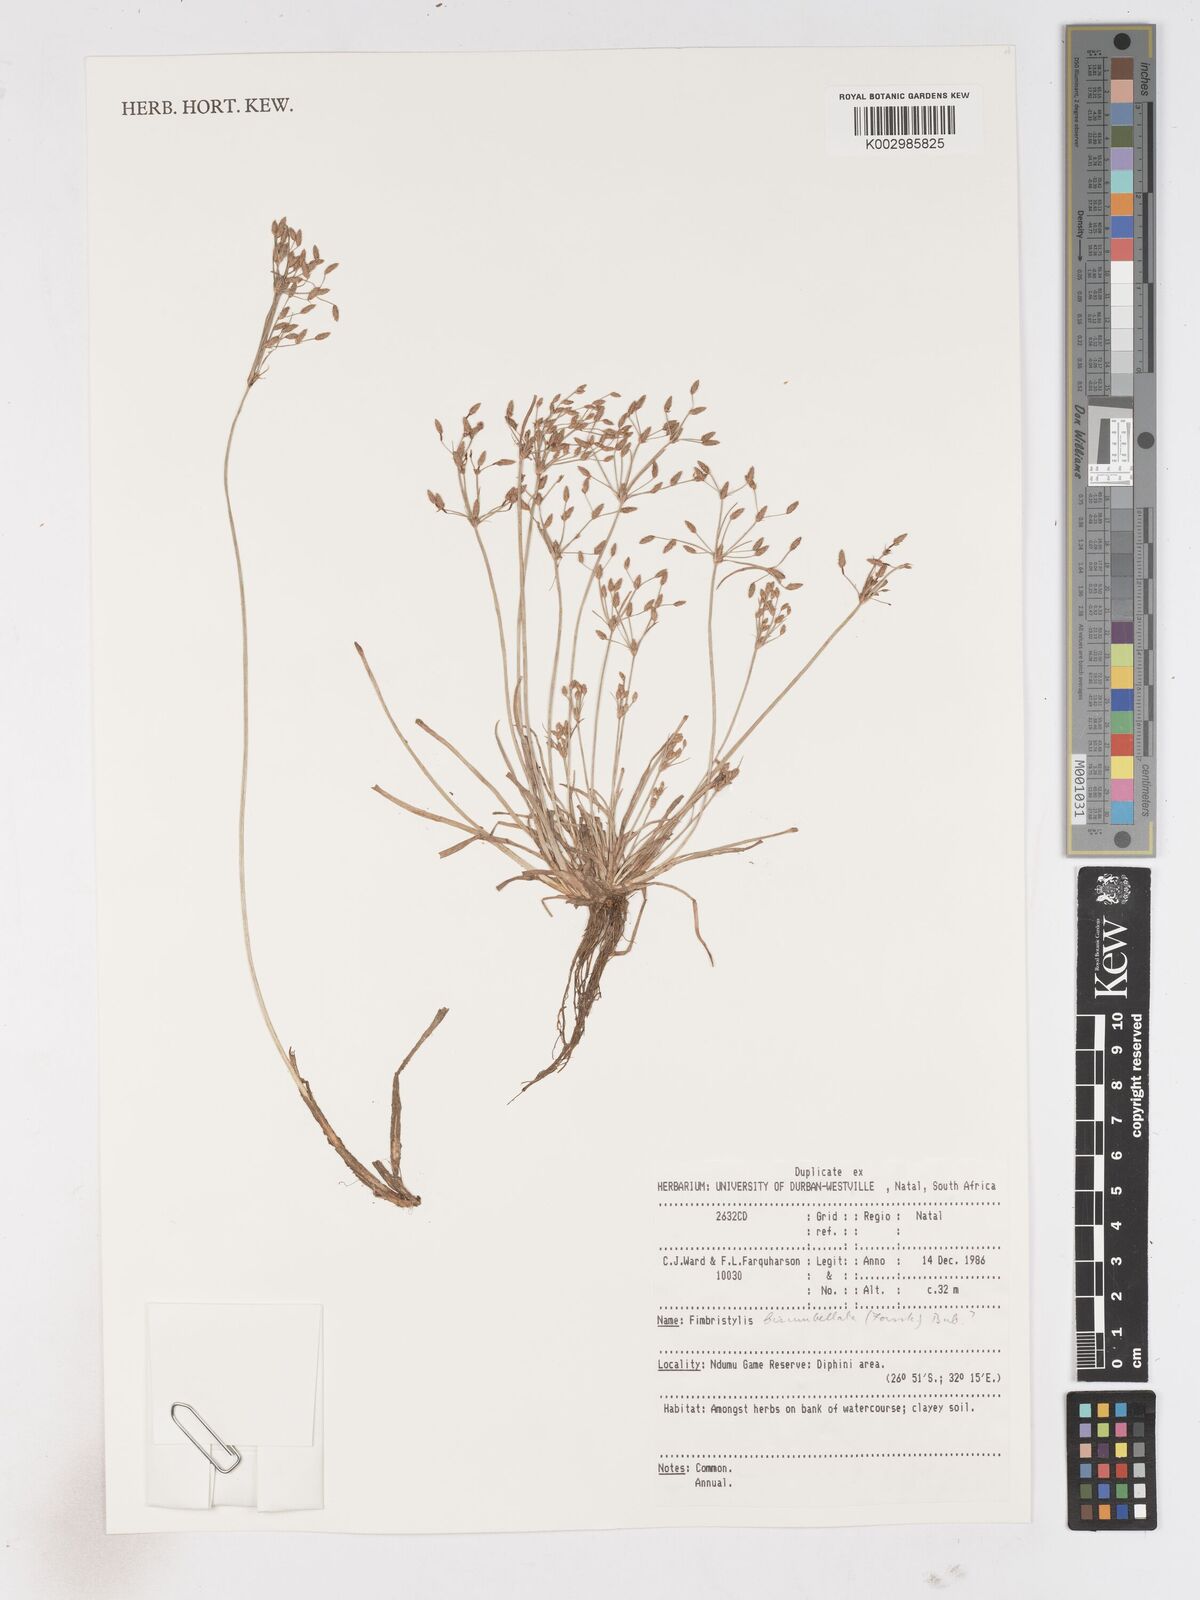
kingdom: Plantae
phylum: Tracheophyta
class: Liliopsida
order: Poales
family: Cyperaceae
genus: Fimbristylis
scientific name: Fimbristylis bisumbellata
